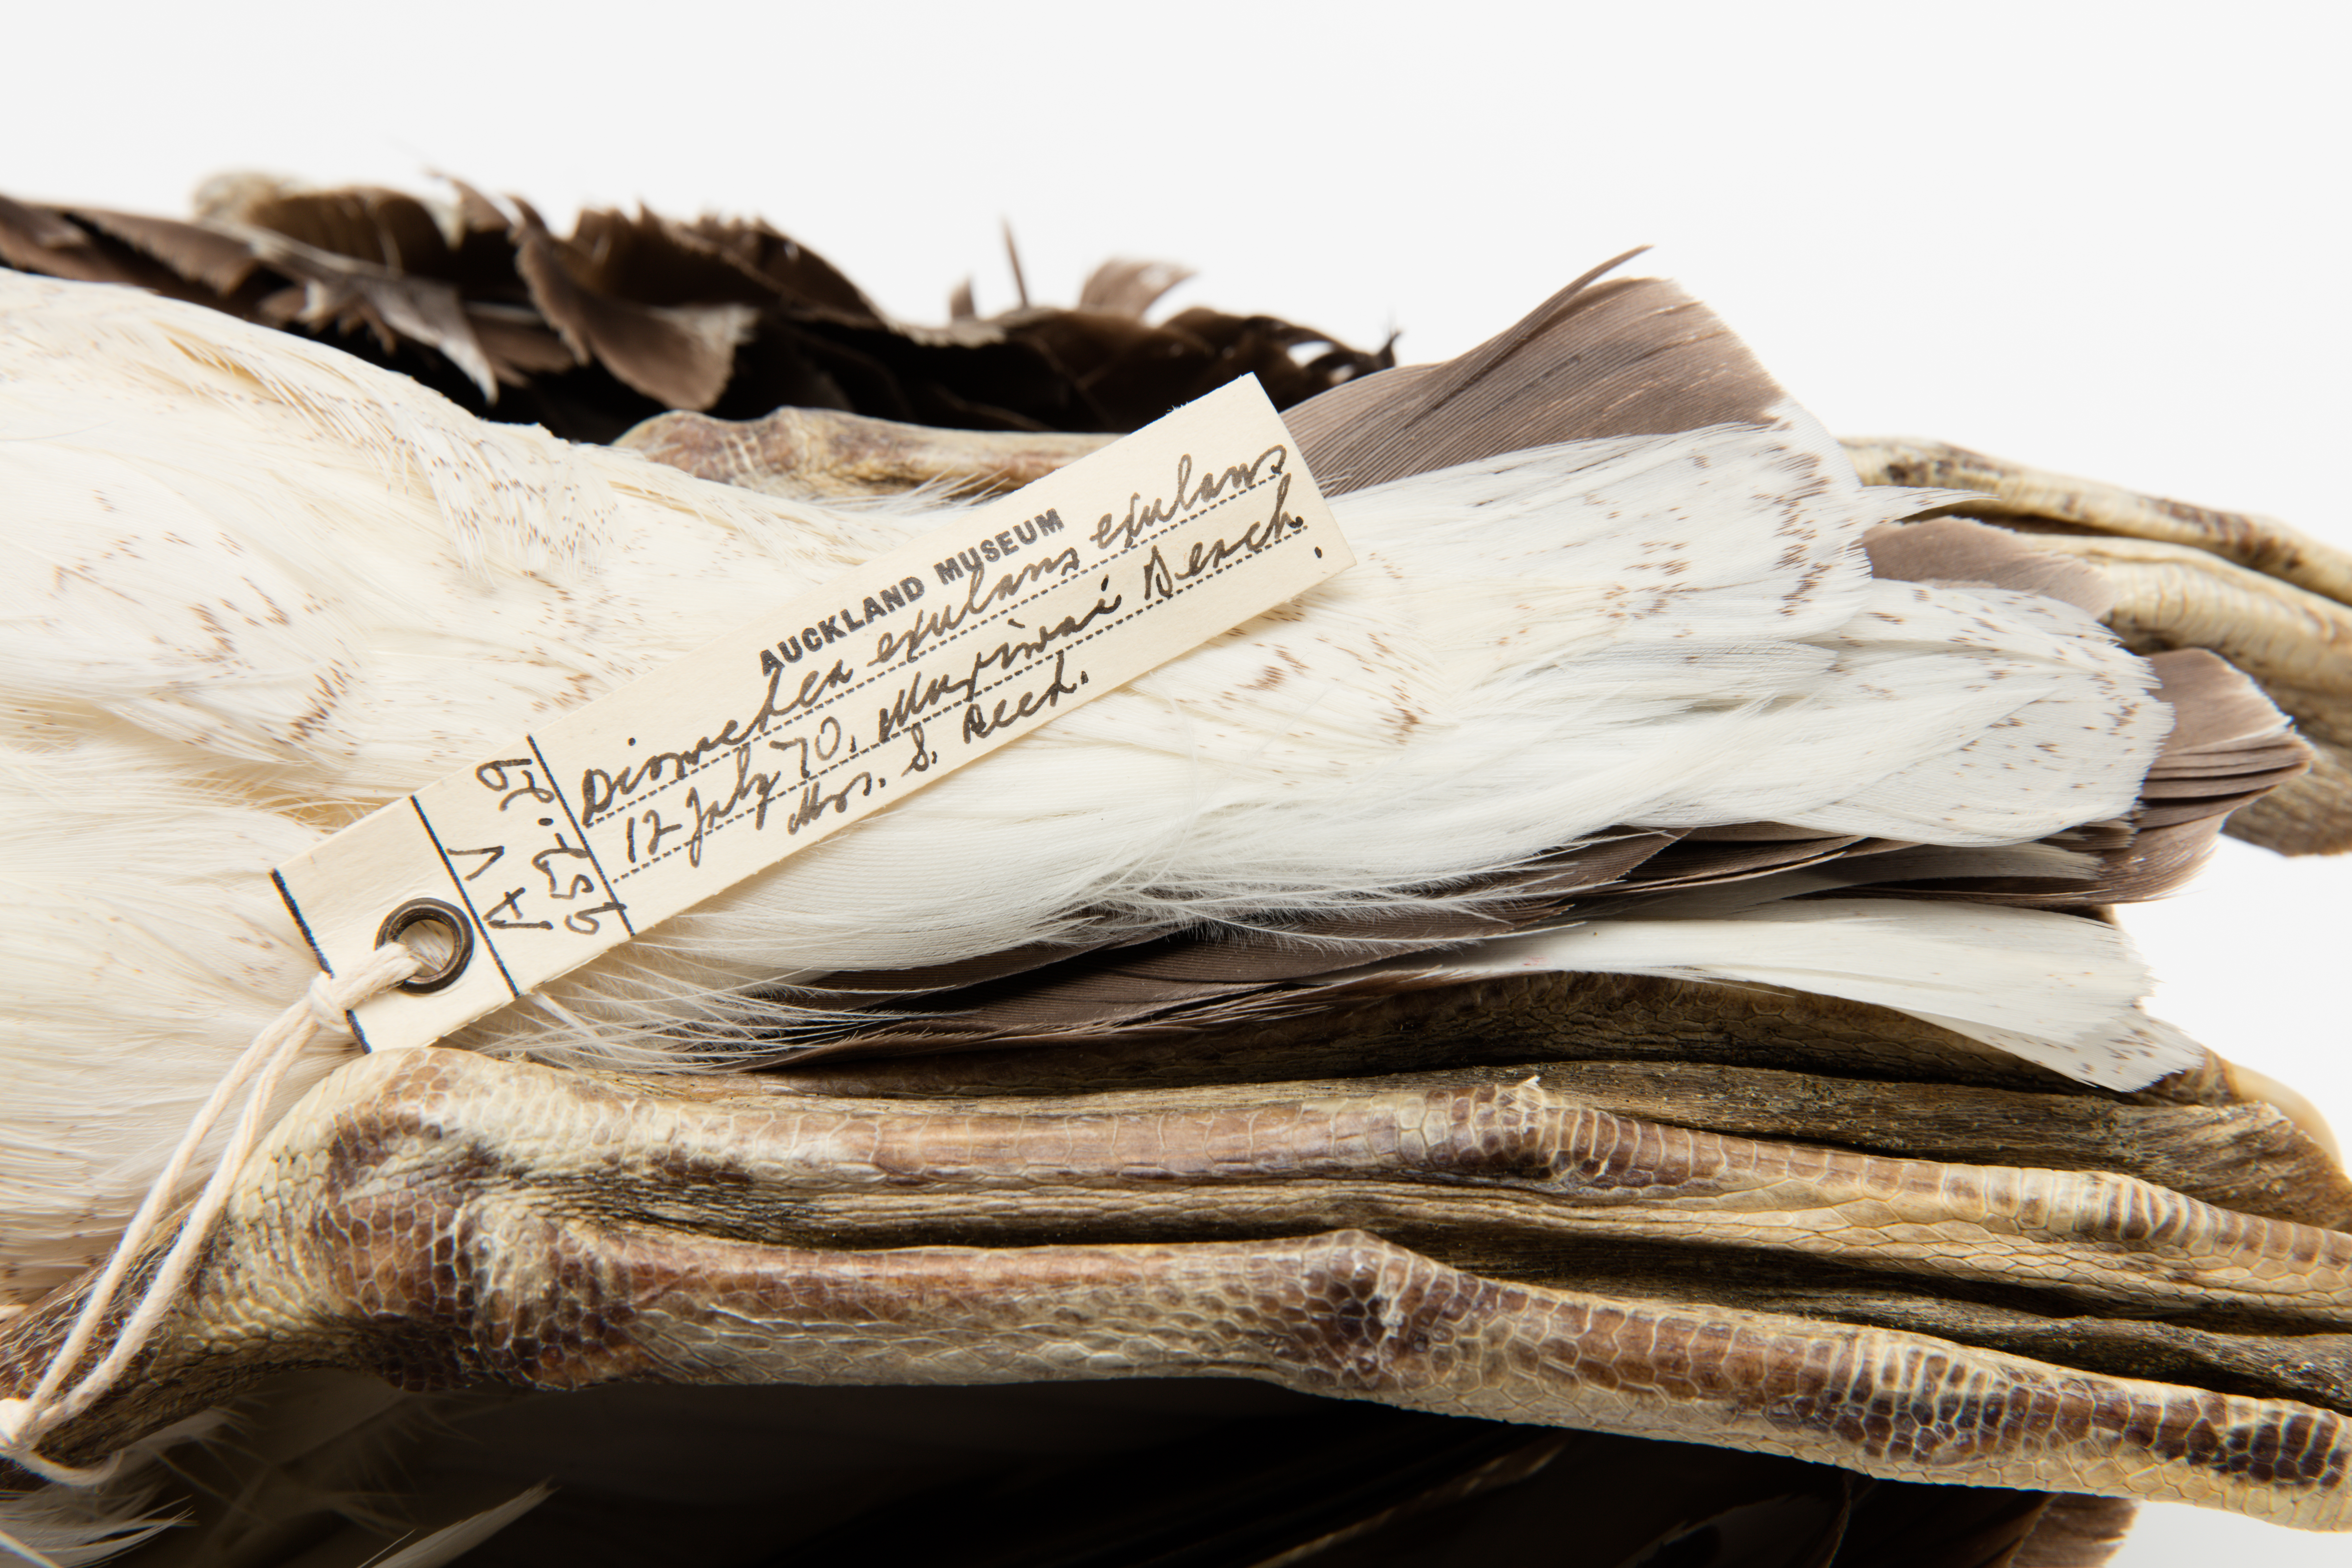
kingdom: Animalia
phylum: Chordata
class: Aves
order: Procellariiformes
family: Diomedeidae
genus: Diomedea
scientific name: Diomedea antipodensis
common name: Antipodean albatross
